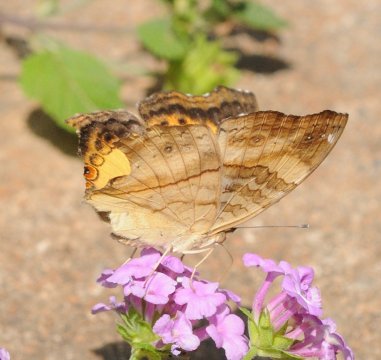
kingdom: Animalia
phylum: Arthropoda
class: Insecta
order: Lepidoptera
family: Nymphalidae
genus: Junonia
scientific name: Junonia terea
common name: Soldier Pansy
